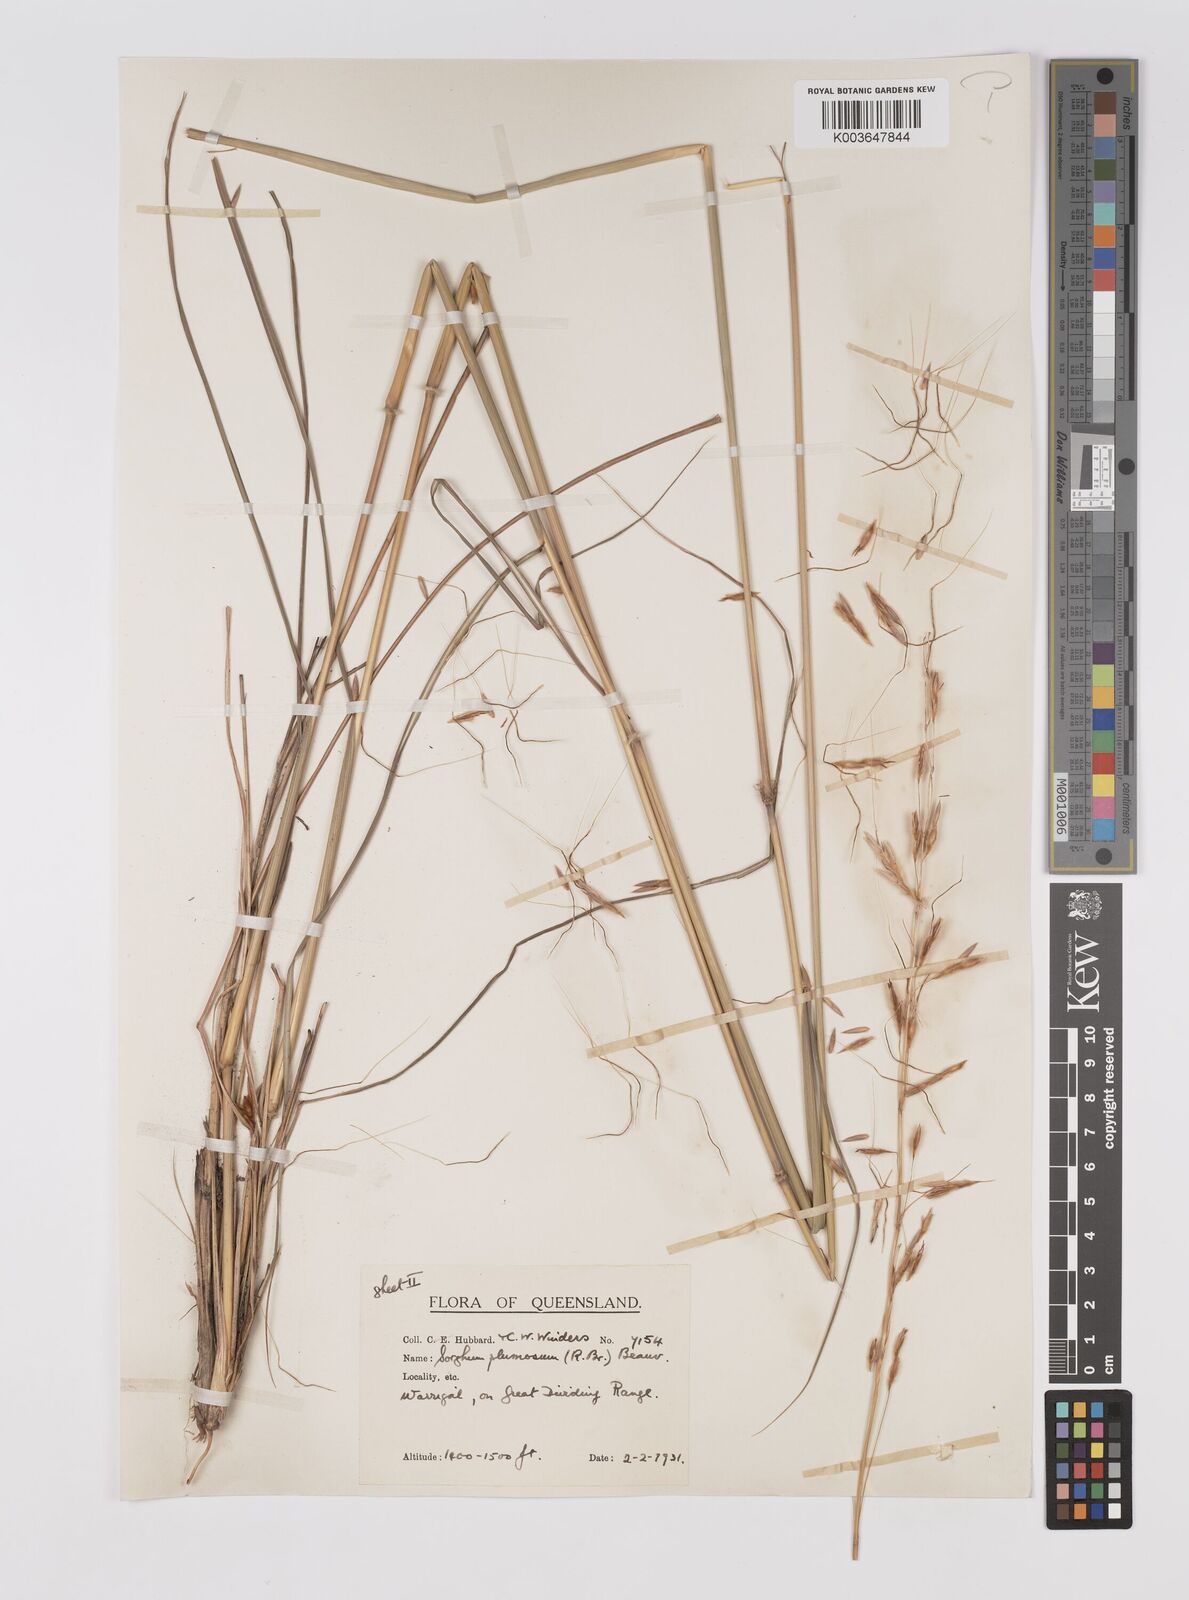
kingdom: Plantae
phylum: Tracheophyta
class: Liliopsida
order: Poales
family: Poaceae
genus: Sarga
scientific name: Sarga plumosa
